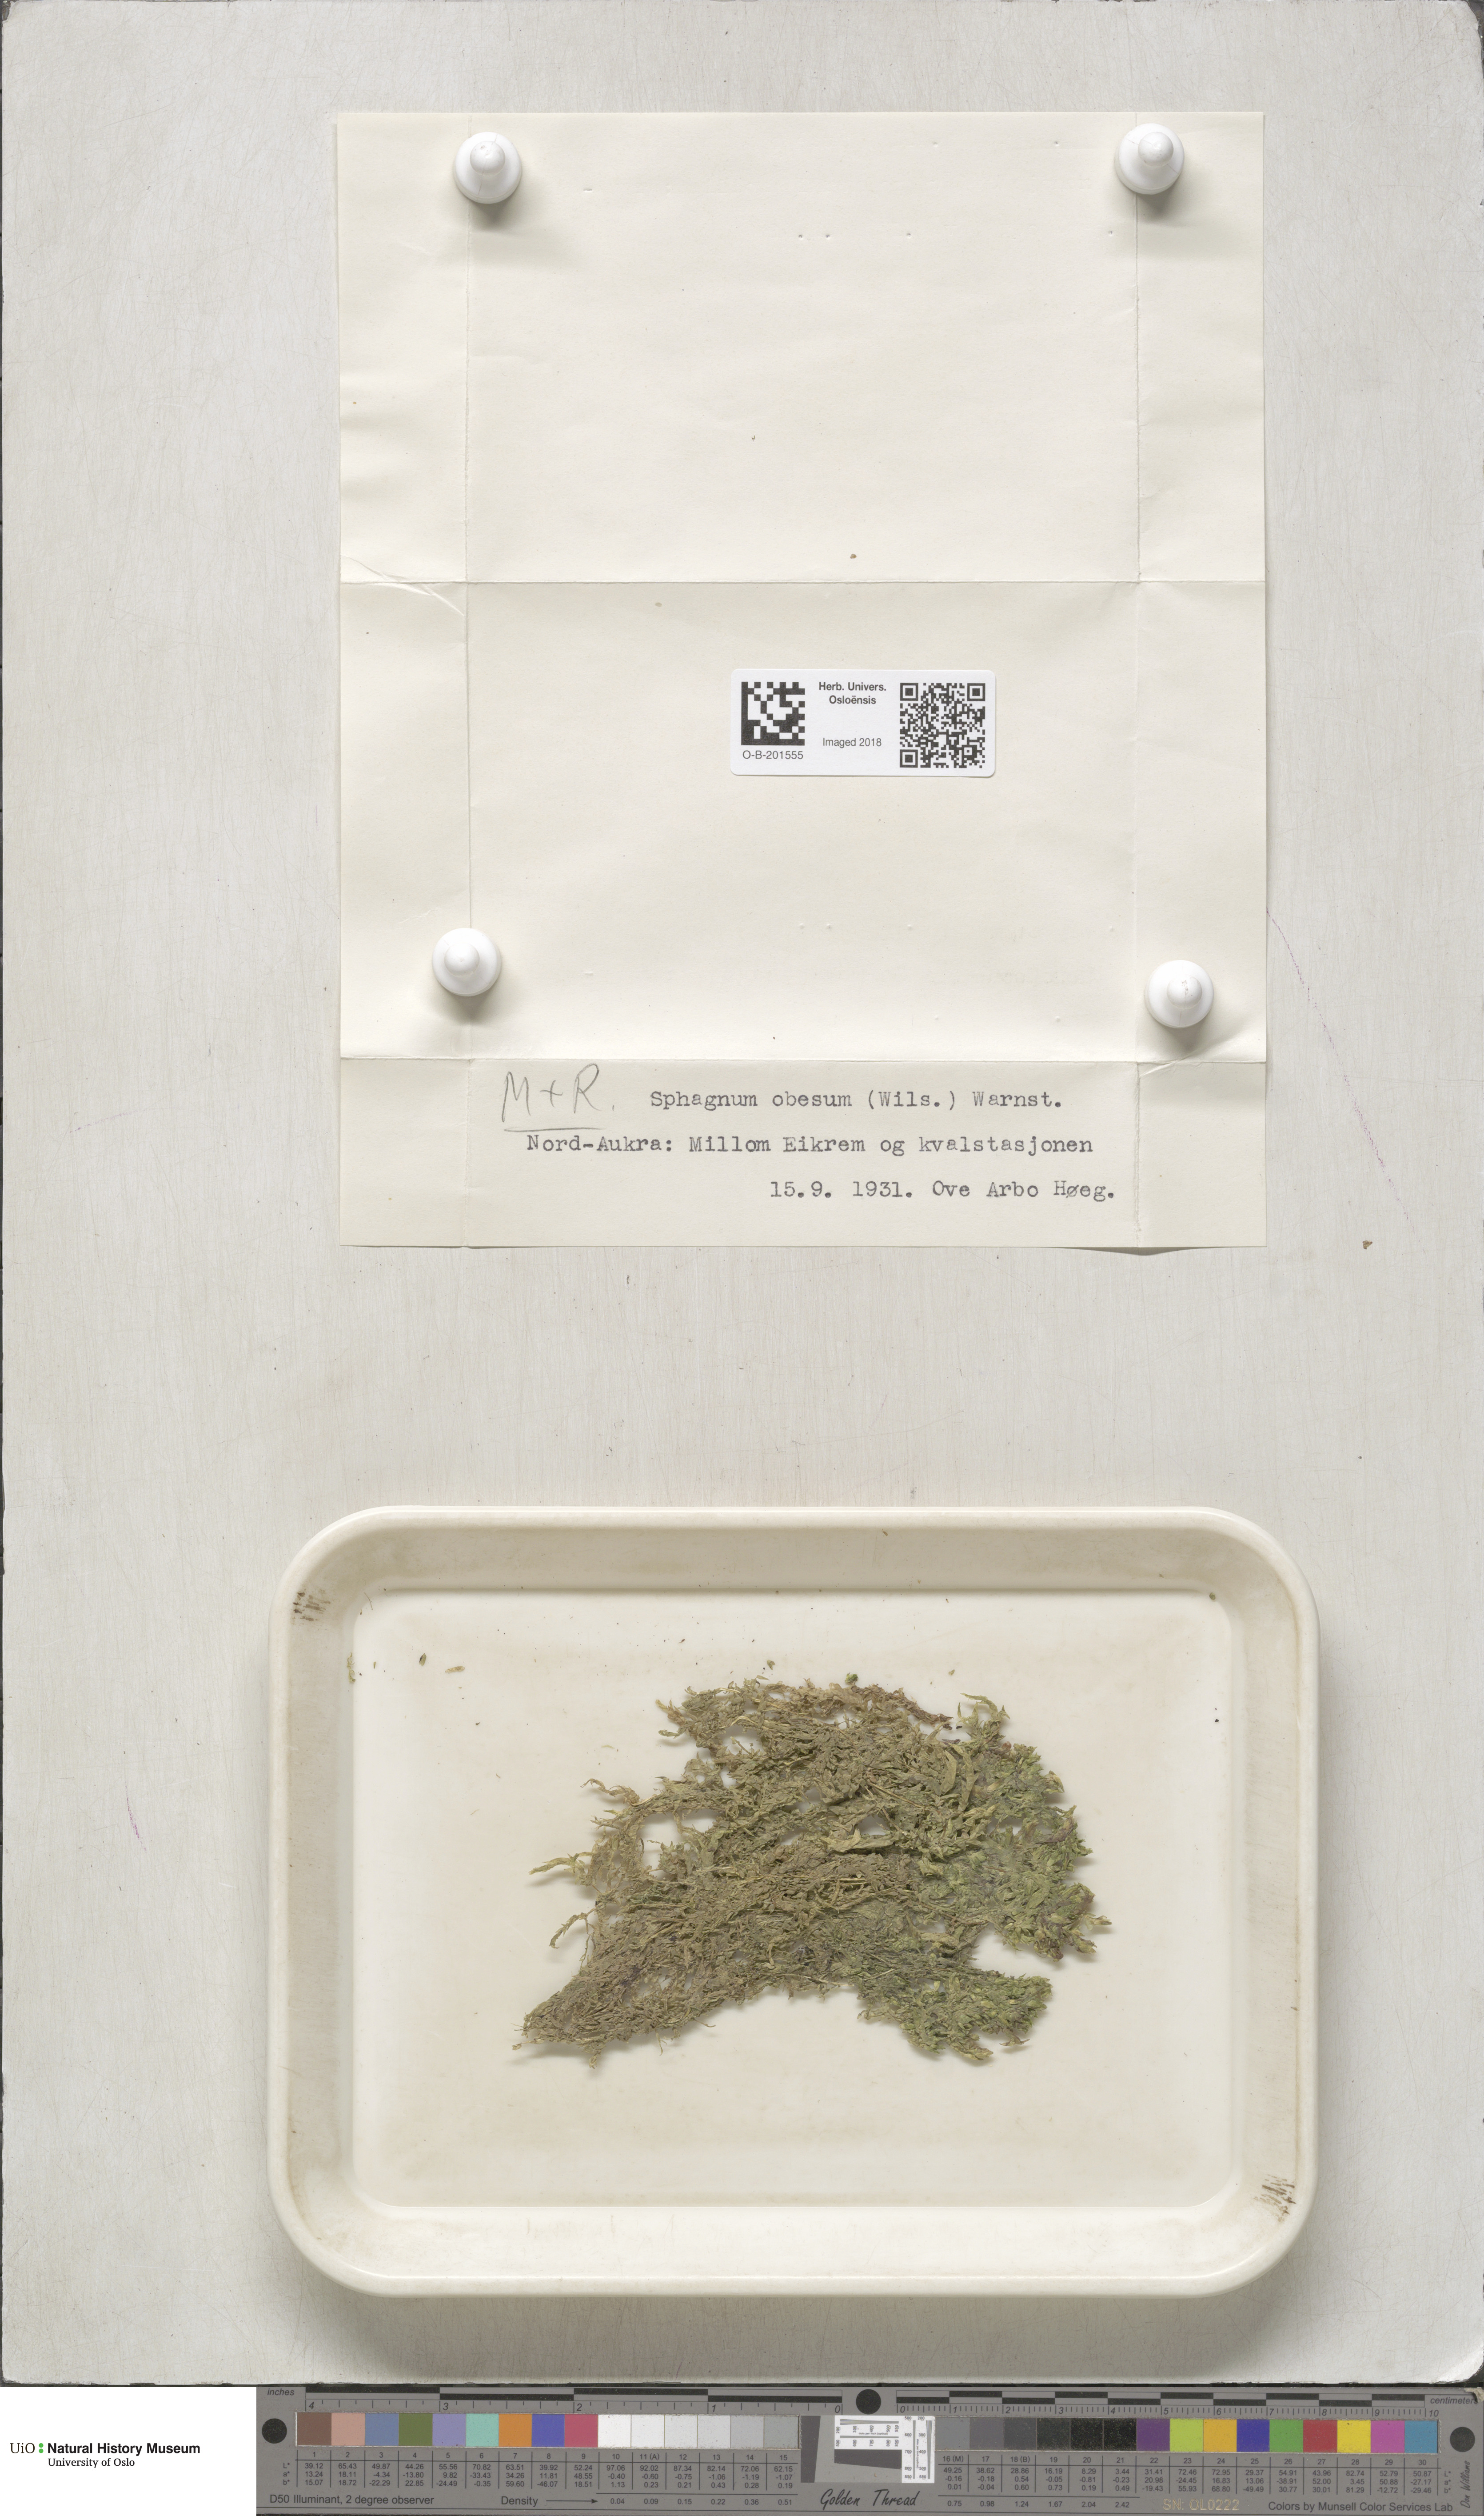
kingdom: Plantae
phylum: Bryophyta
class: Sphagnopsida
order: Sphagnales
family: Sphagnaceae
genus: Sphagnum
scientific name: Sphagnum inundatum
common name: Lesser cow-horn bog-moss
